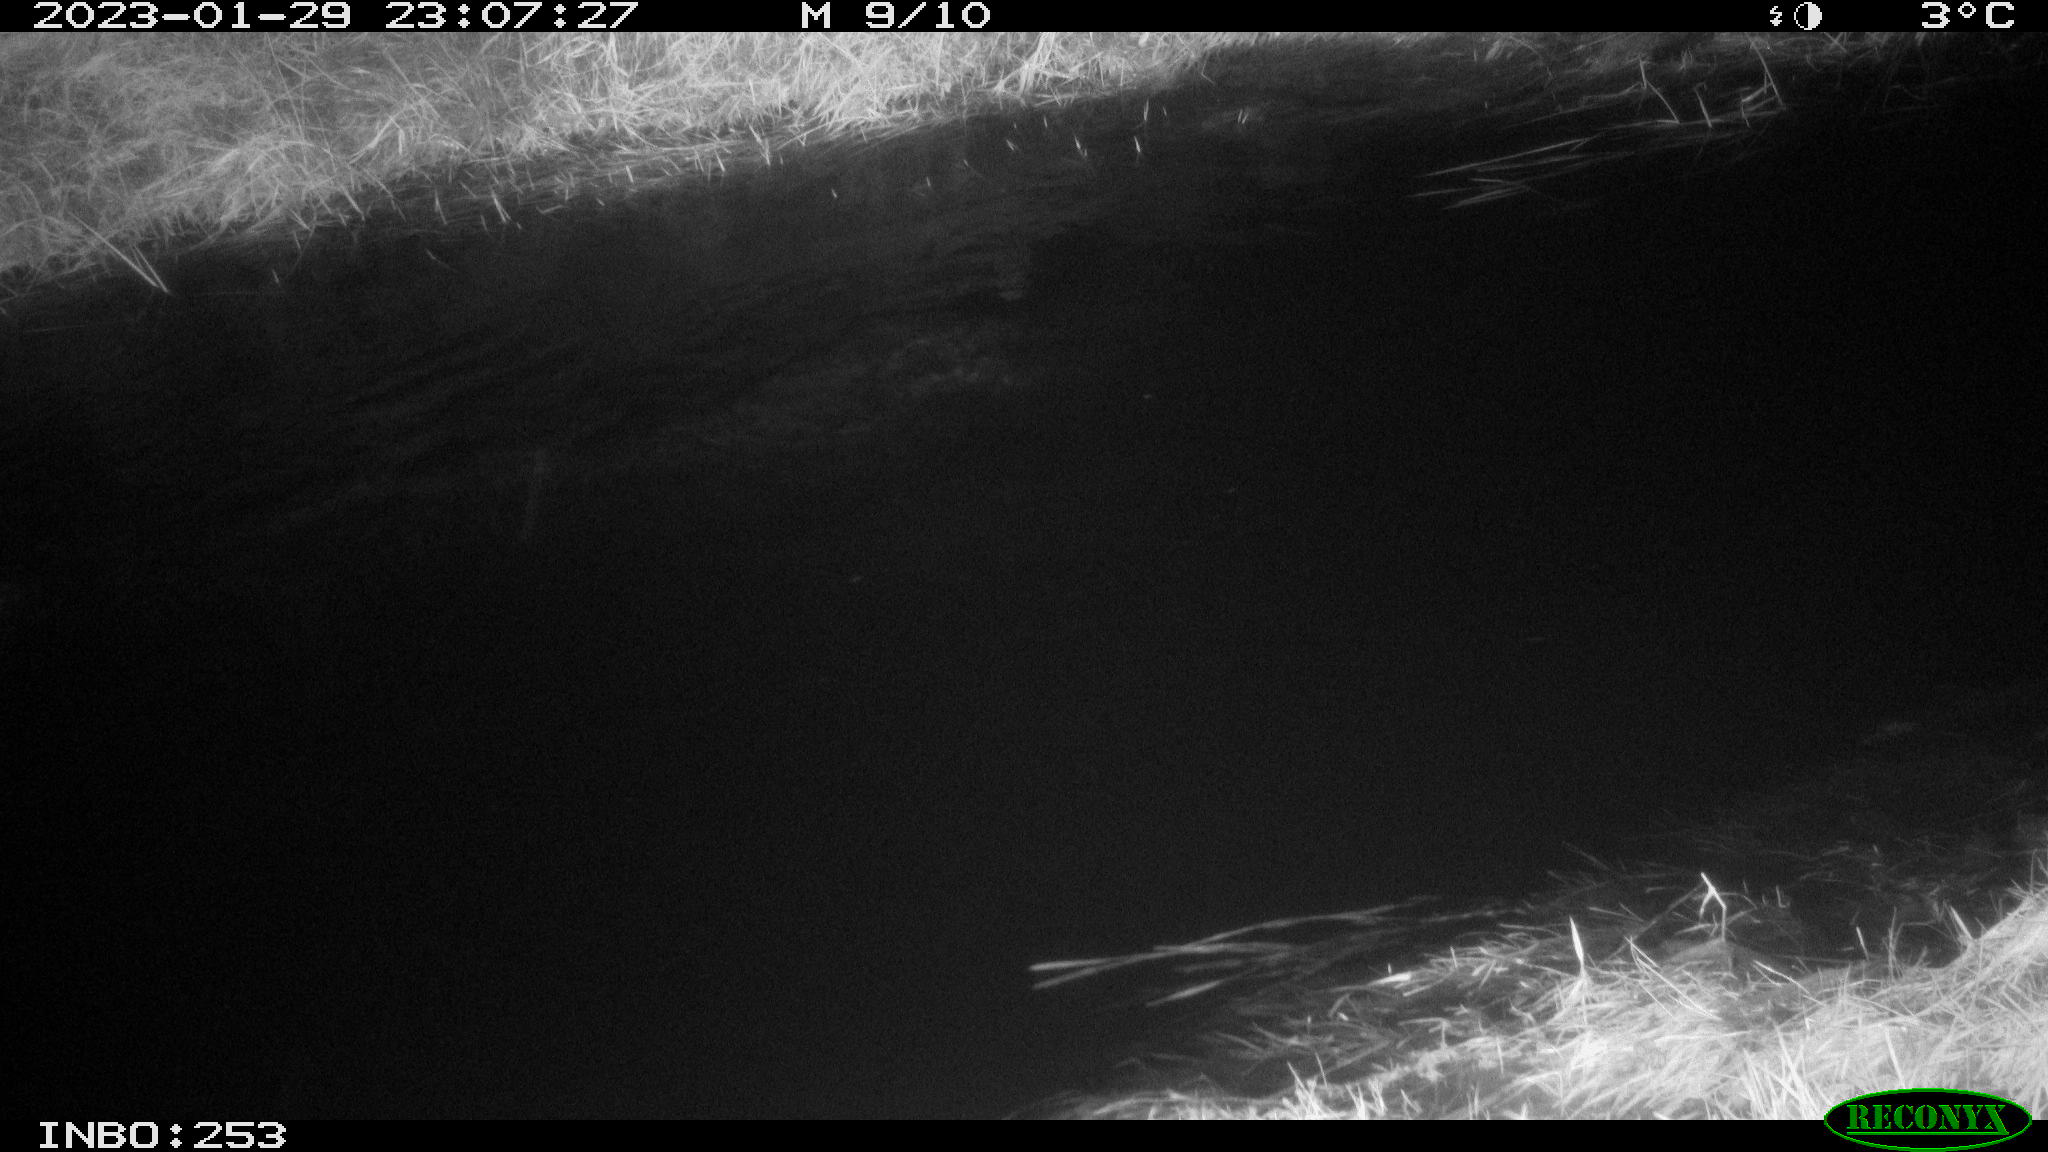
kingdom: Animalia
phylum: Chordata
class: Aves
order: Anseriformes
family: Anatidae
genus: Anas
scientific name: Anas
